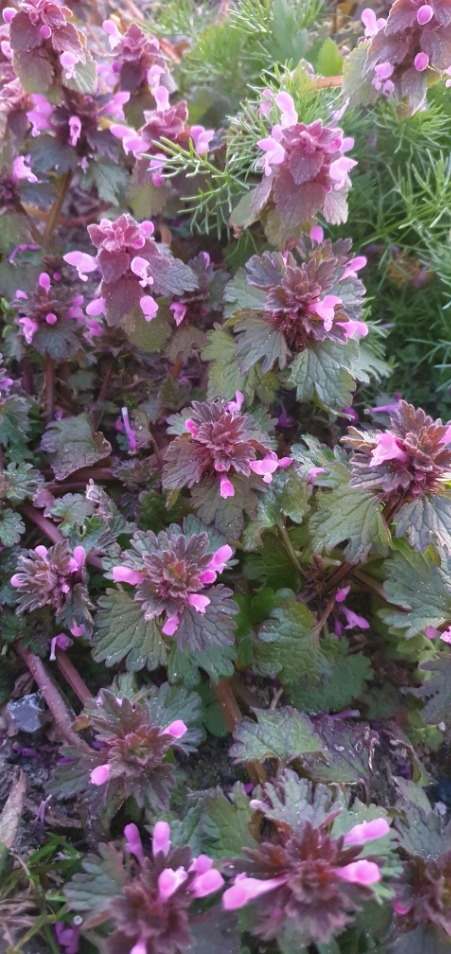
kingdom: Plantae
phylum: Tracheophyta
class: Magnoliopsida
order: Lamiales
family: Lamiaceae
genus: Lamium
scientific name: Lamium hybridum
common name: Fliget tvetand
